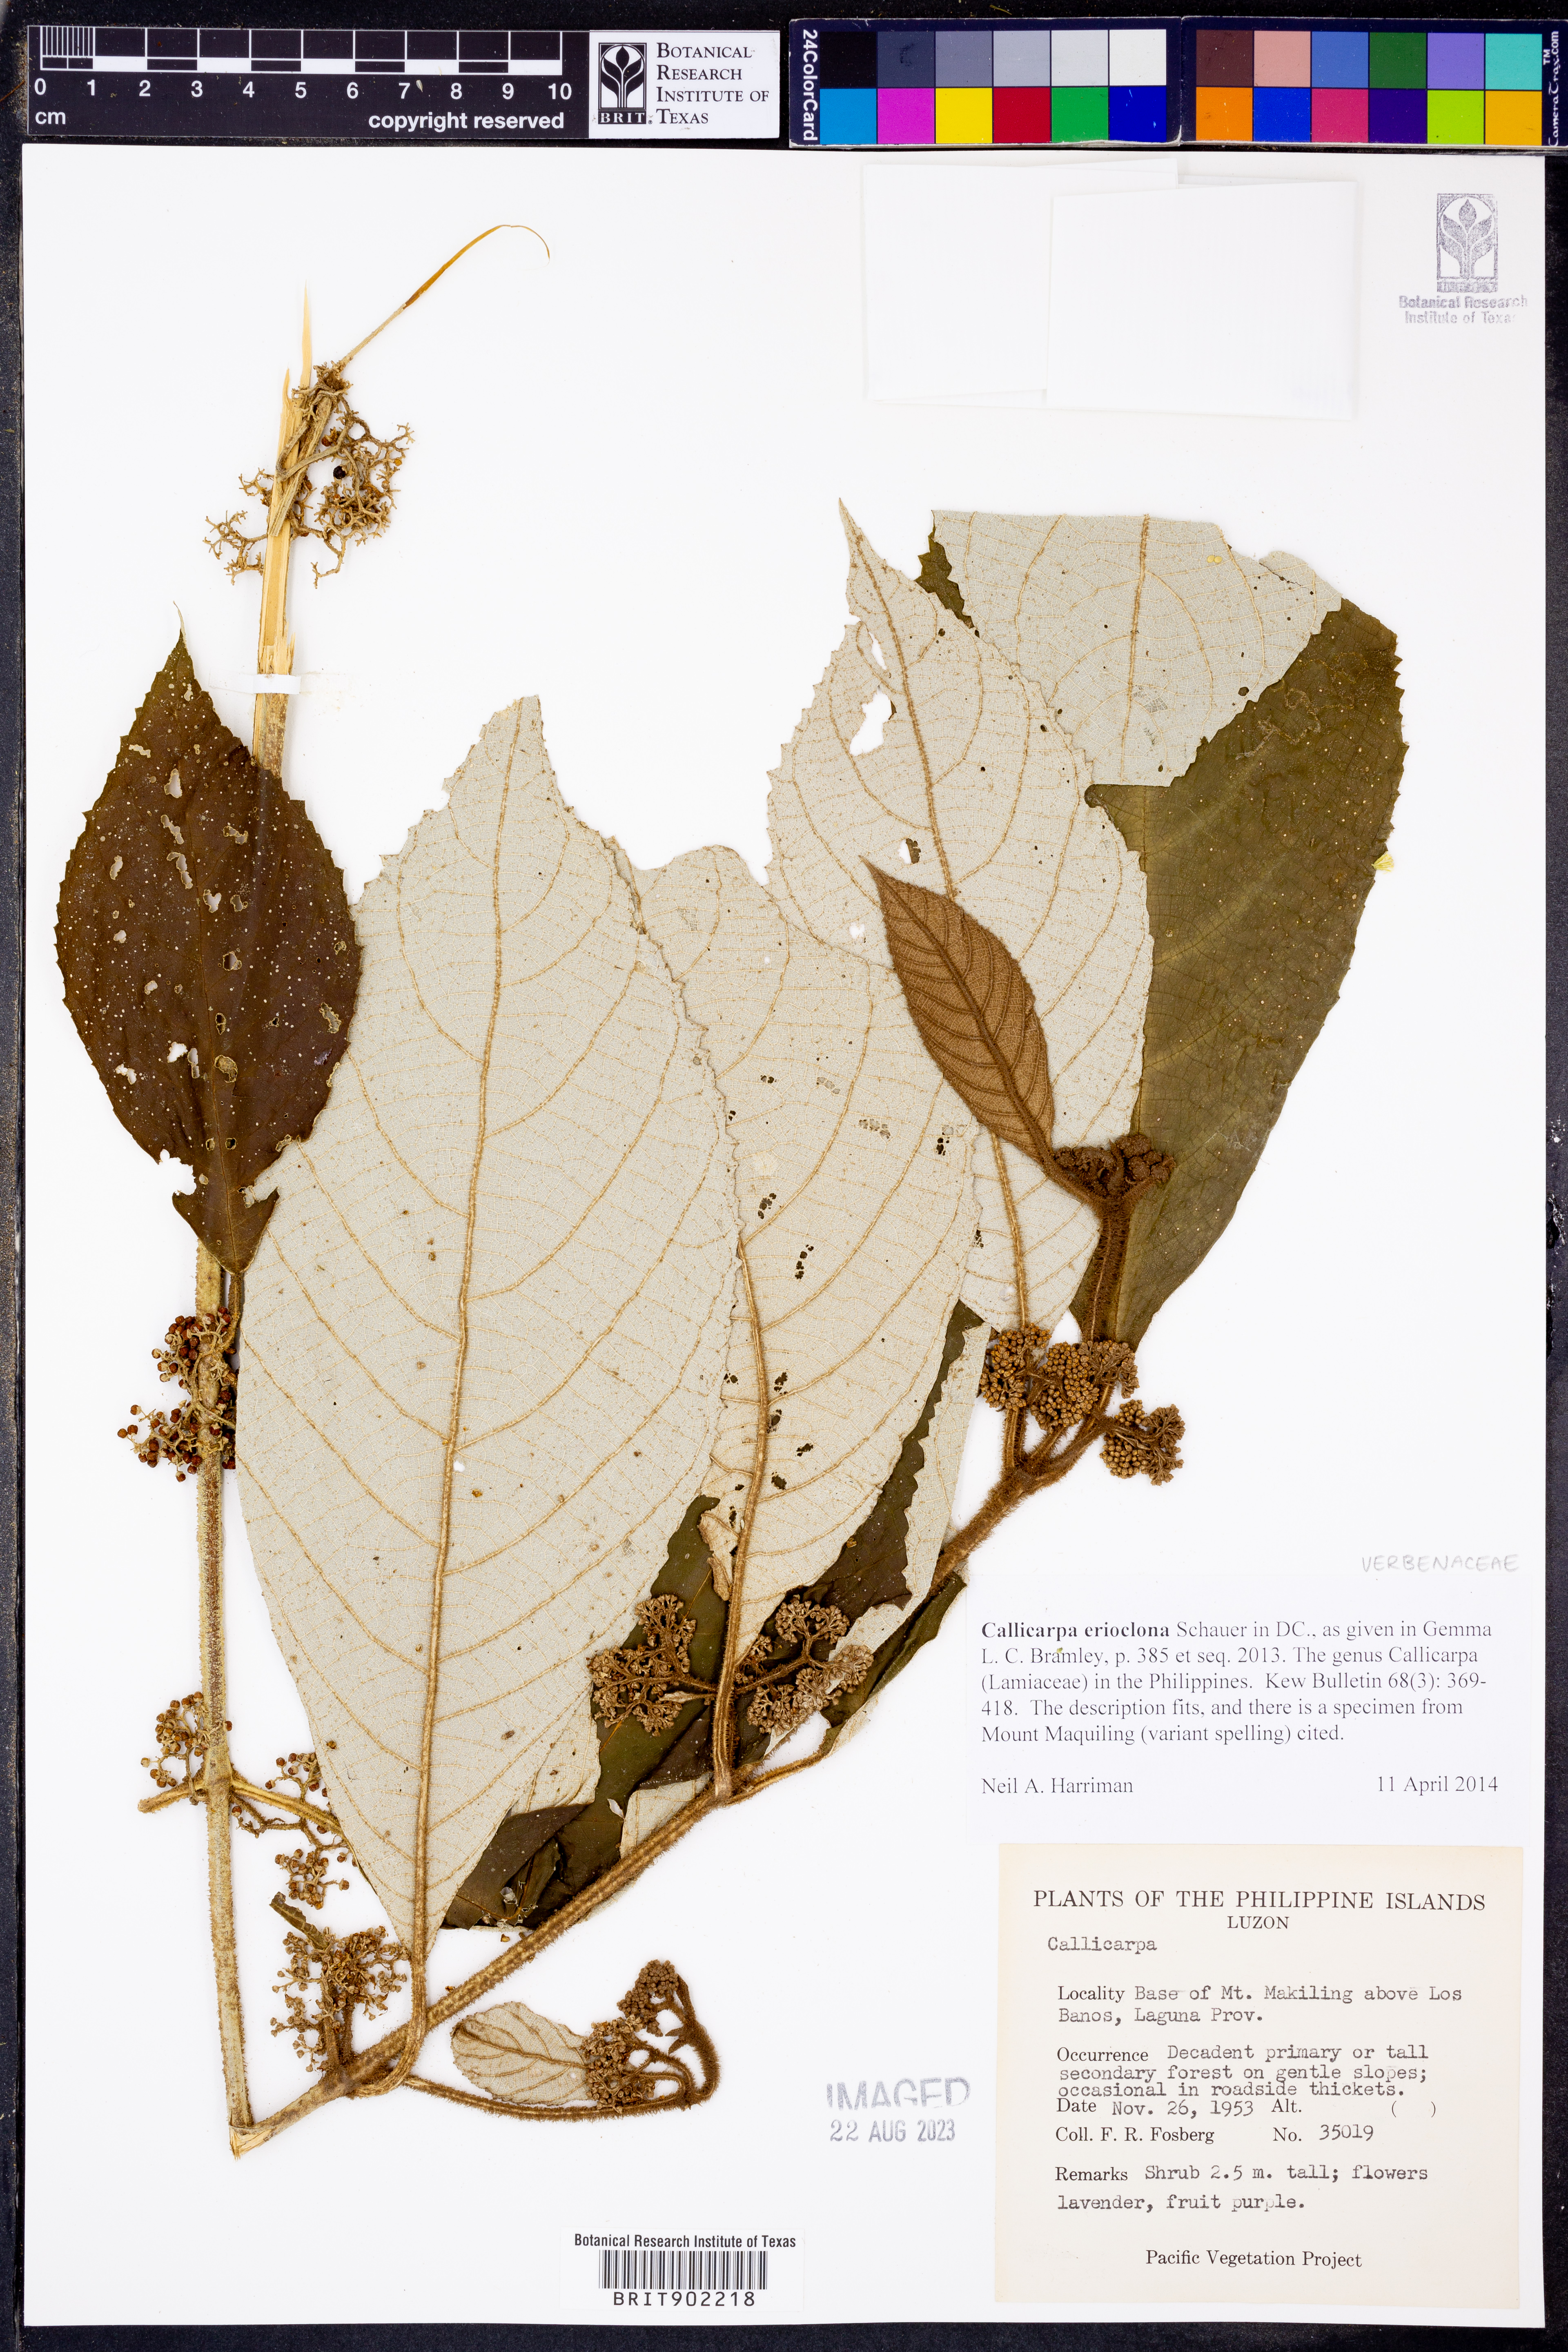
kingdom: Plantae
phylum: Tracheophyta
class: Magnoliopsida
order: Lamiales
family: Lamiaceae
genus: Callicarpa
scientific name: Callicarpa erioclona
